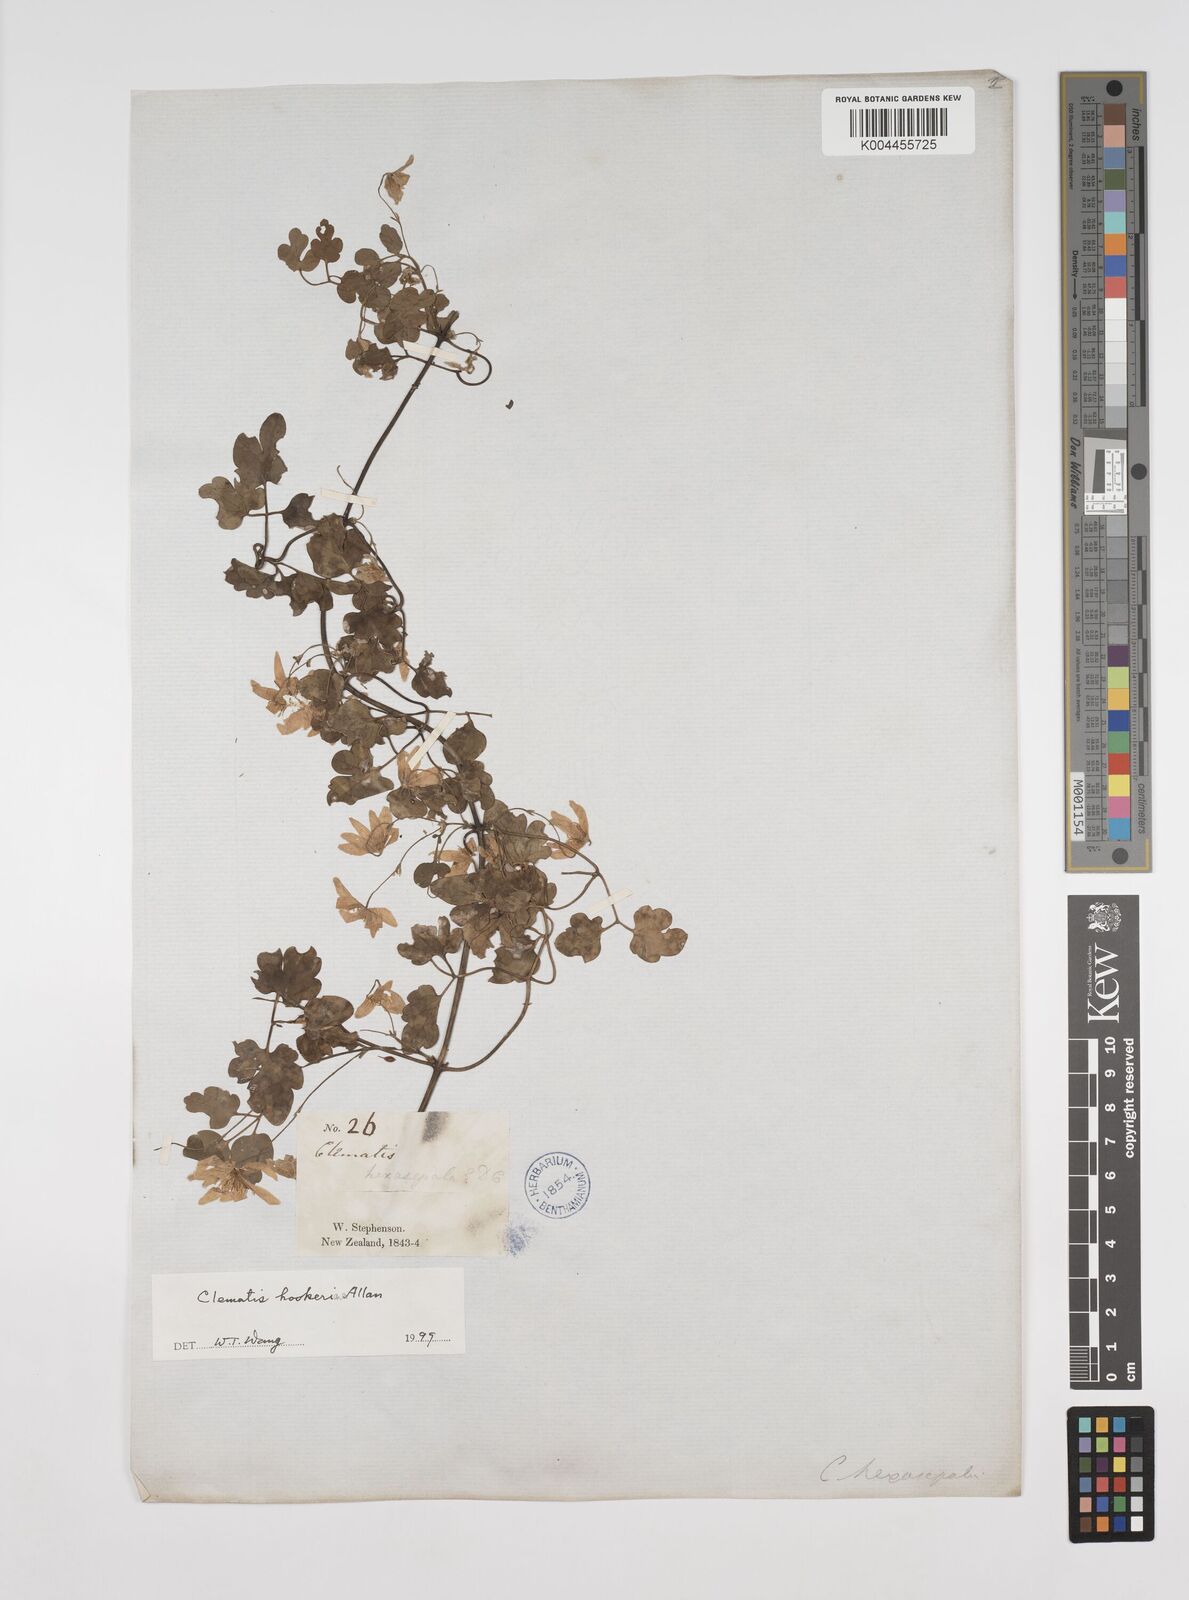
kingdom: Plantae
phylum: Tracheophyta
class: Magnoliopsida
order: Ranunculales
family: Ranunculaceae
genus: Clematis
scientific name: Clematis forsteri
